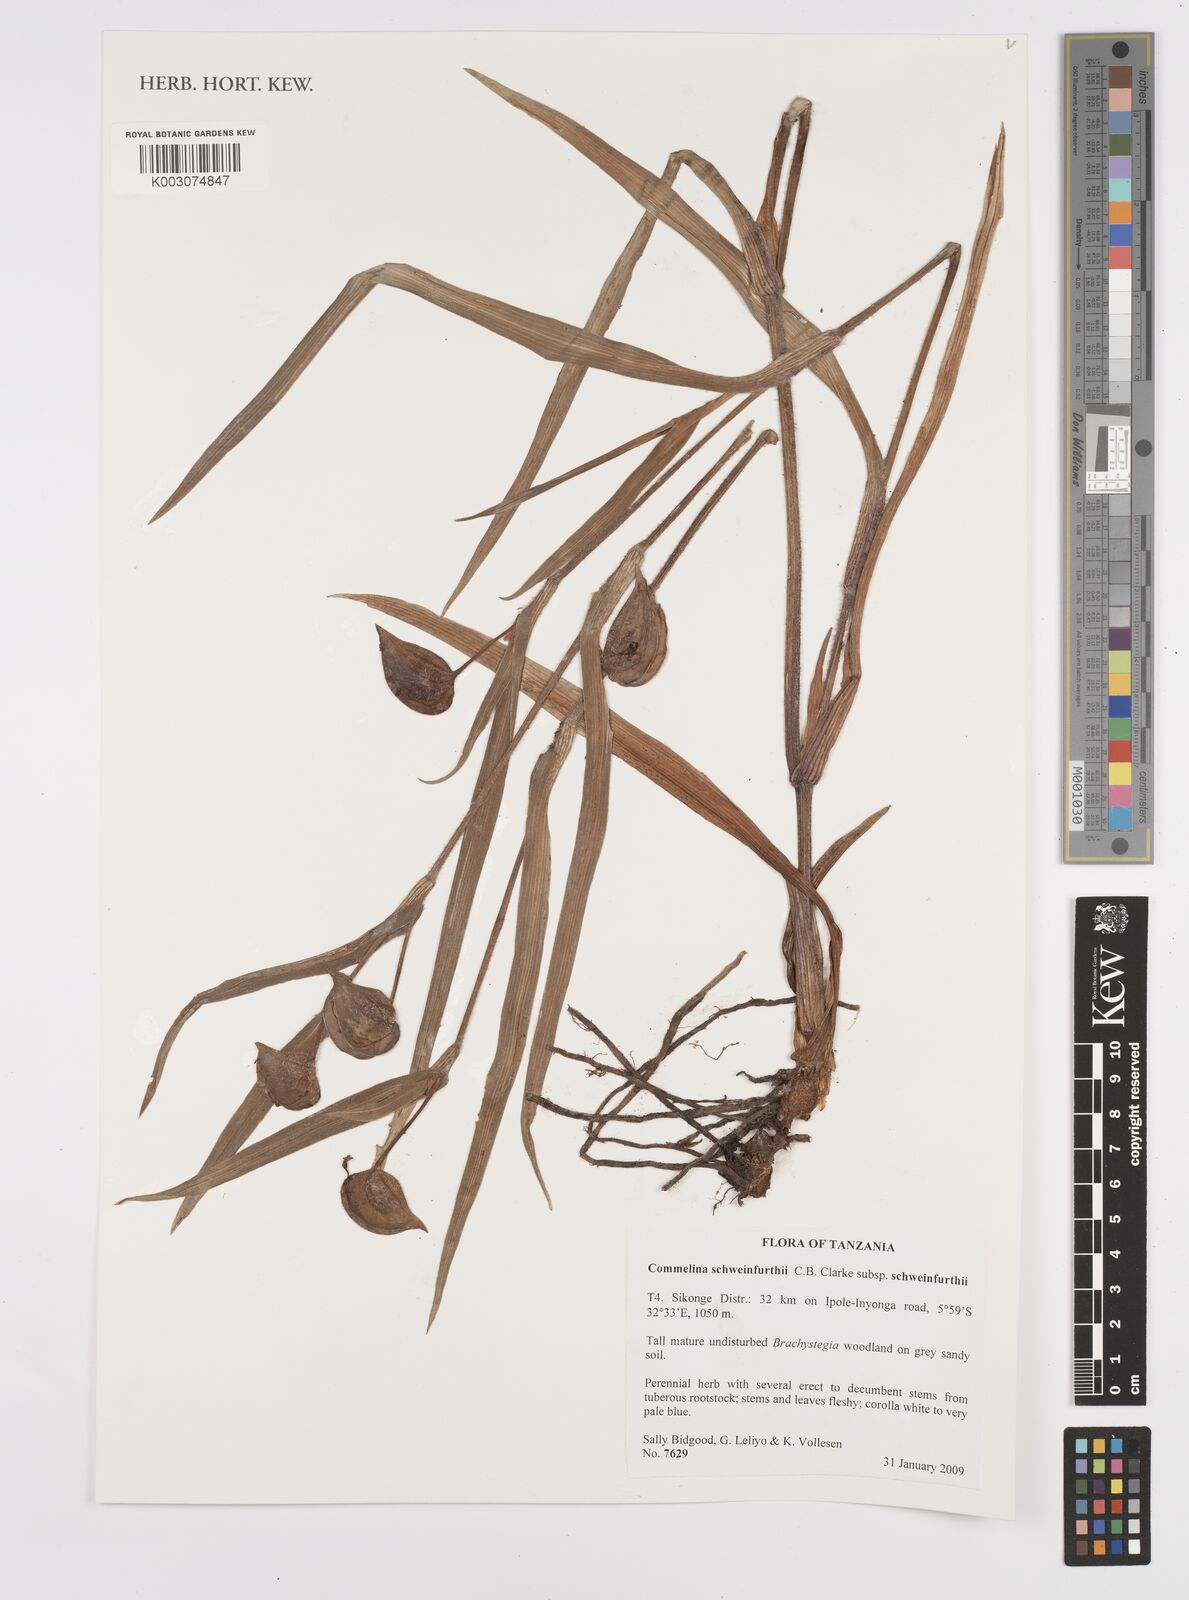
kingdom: Plantae
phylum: Tracheophyta
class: Liliopsida
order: Commelinales
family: Commelinaceae
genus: Commelina
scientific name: Commelina schweinfurthii
